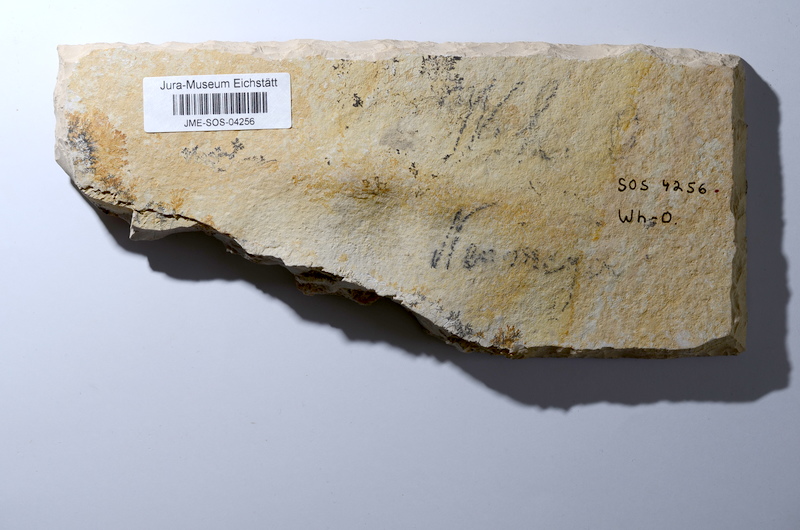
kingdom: Animalia
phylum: Chordata
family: Aspidorhynchidae
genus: Aspidorhynchus
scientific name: Aspidorhynchus acutirostris
